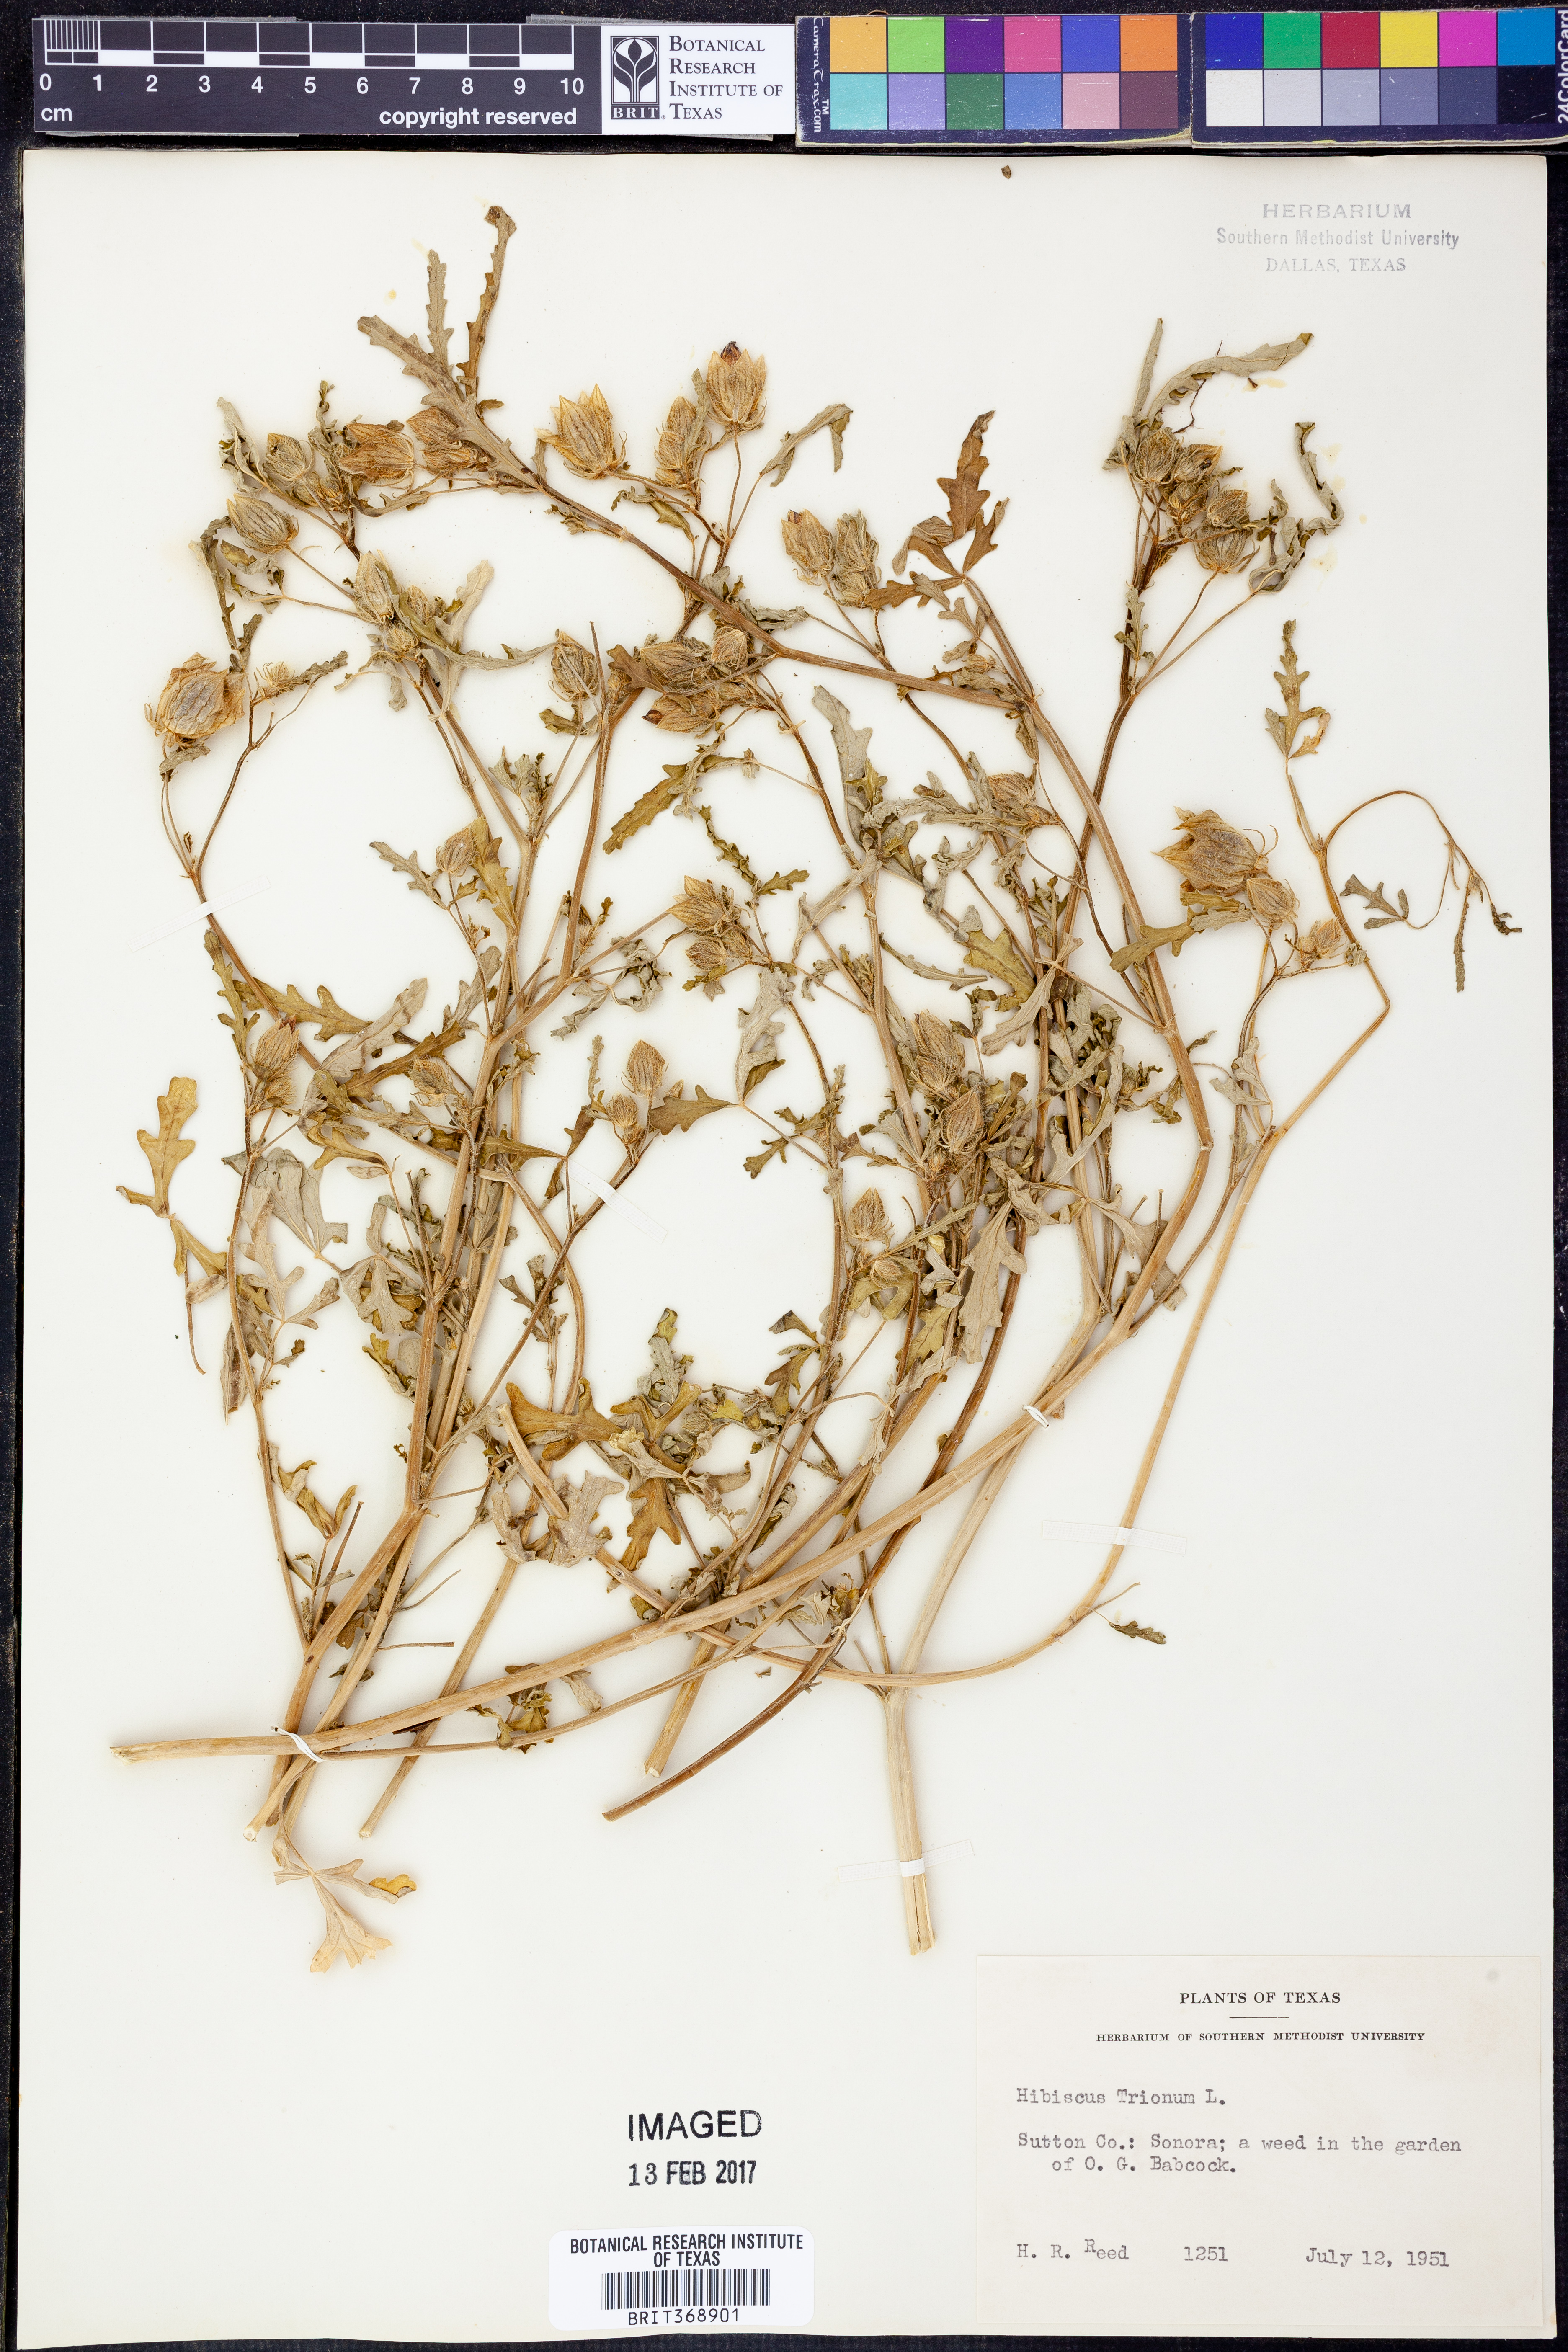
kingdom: Plantae
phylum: Tracheophyta
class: Magnoliopsida
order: Malvales
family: Malvaceae
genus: Hibiscus
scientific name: Hibiscus trionum
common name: Bladder ketmia
